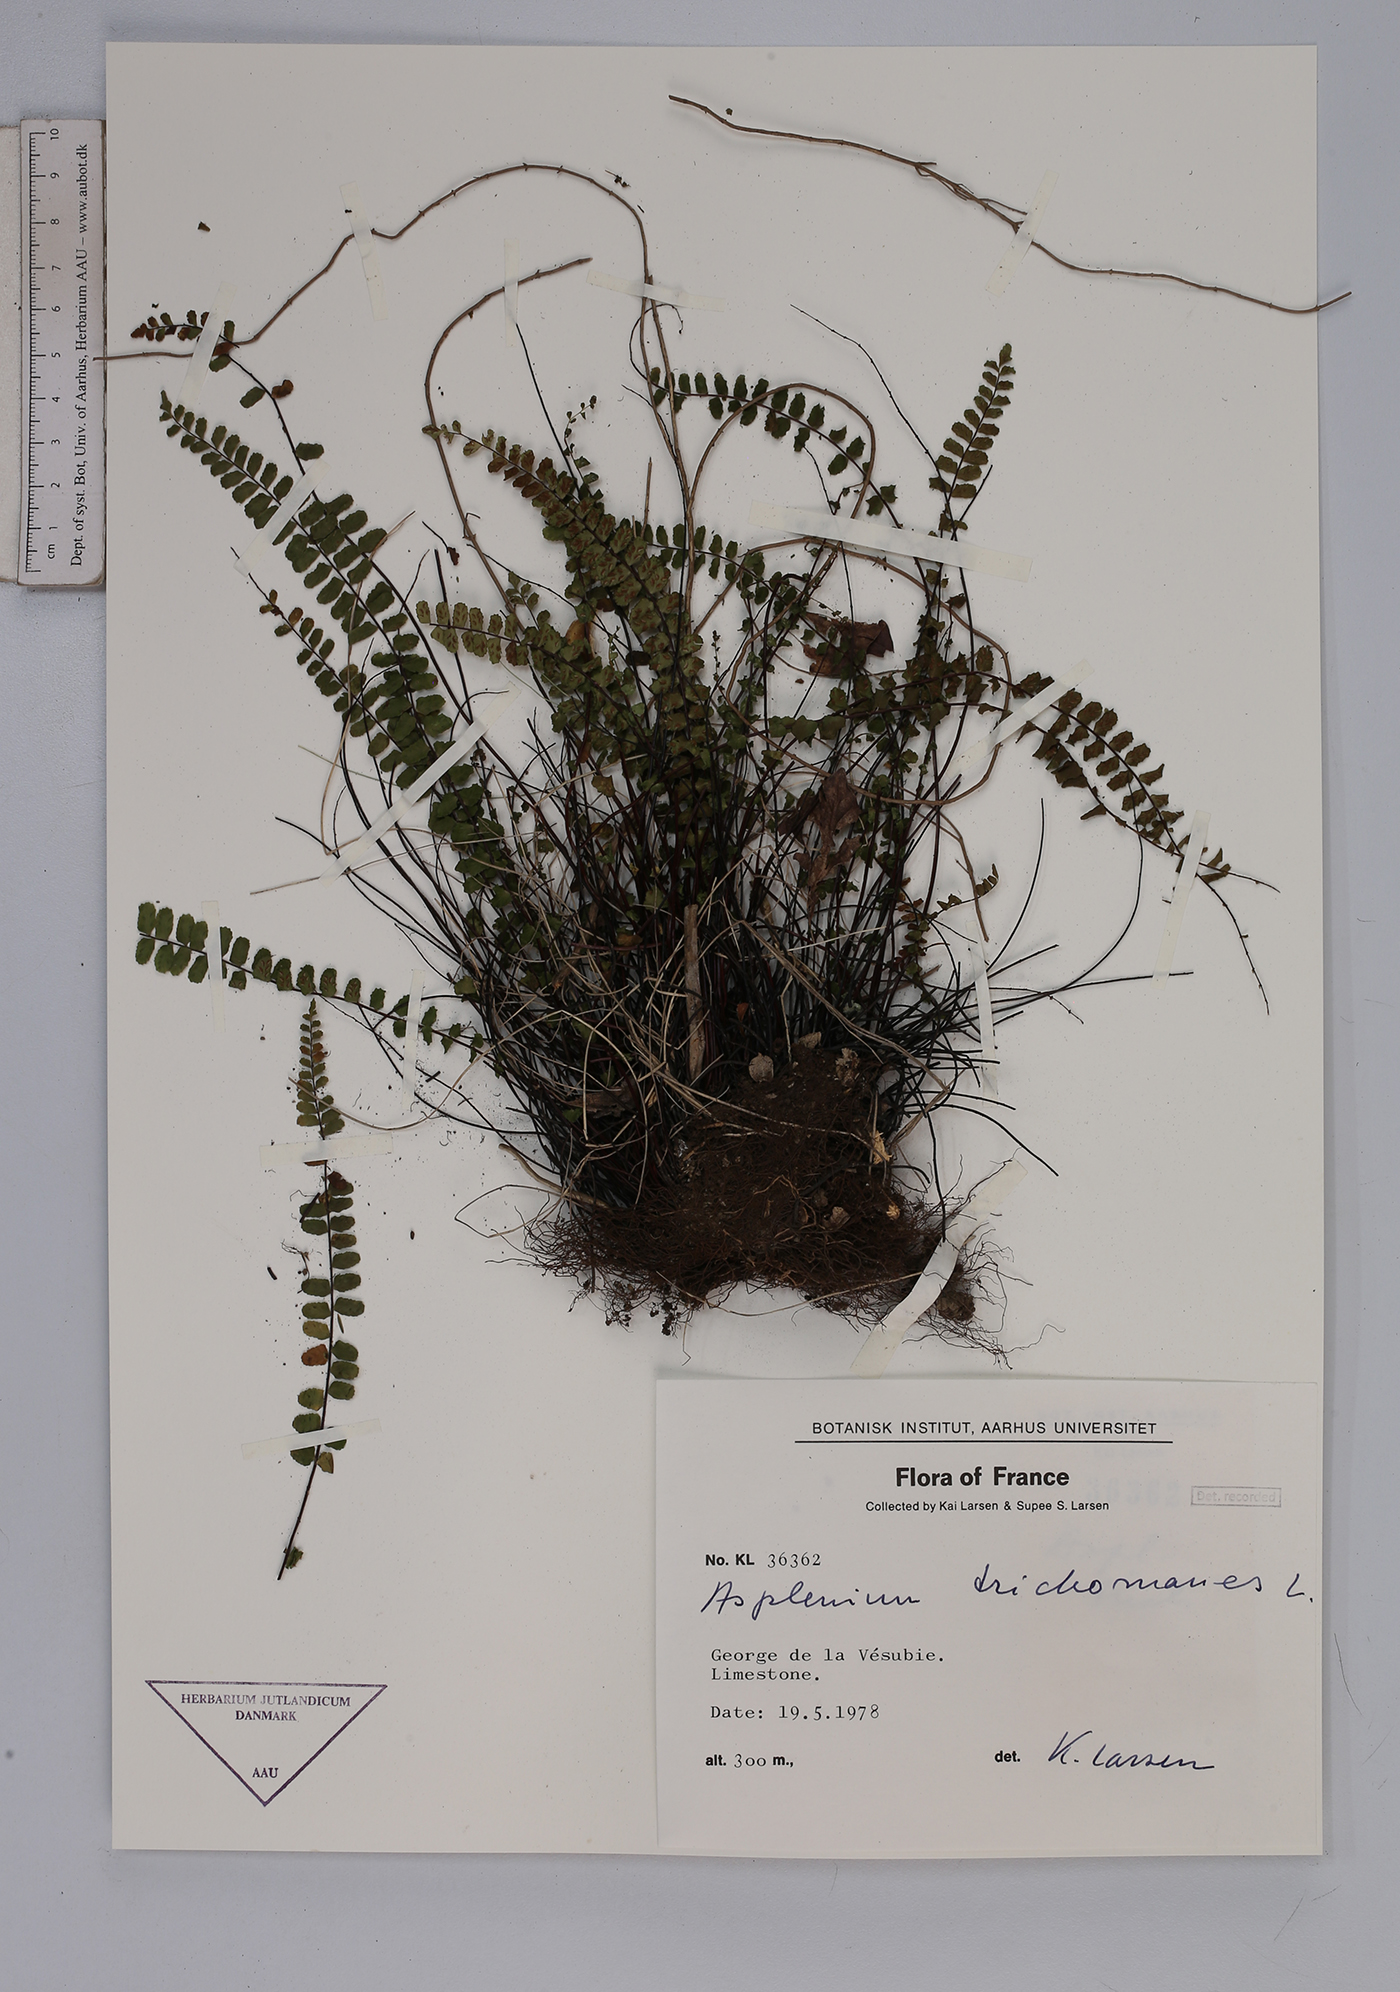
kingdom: Plantae
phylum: Tracheophyta
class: Polypodiopsida
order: Polypodiales
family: Aspleniaceae
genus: Asplenium
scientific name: Asplenium trichomanes
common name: Maidenhair spleenwort
